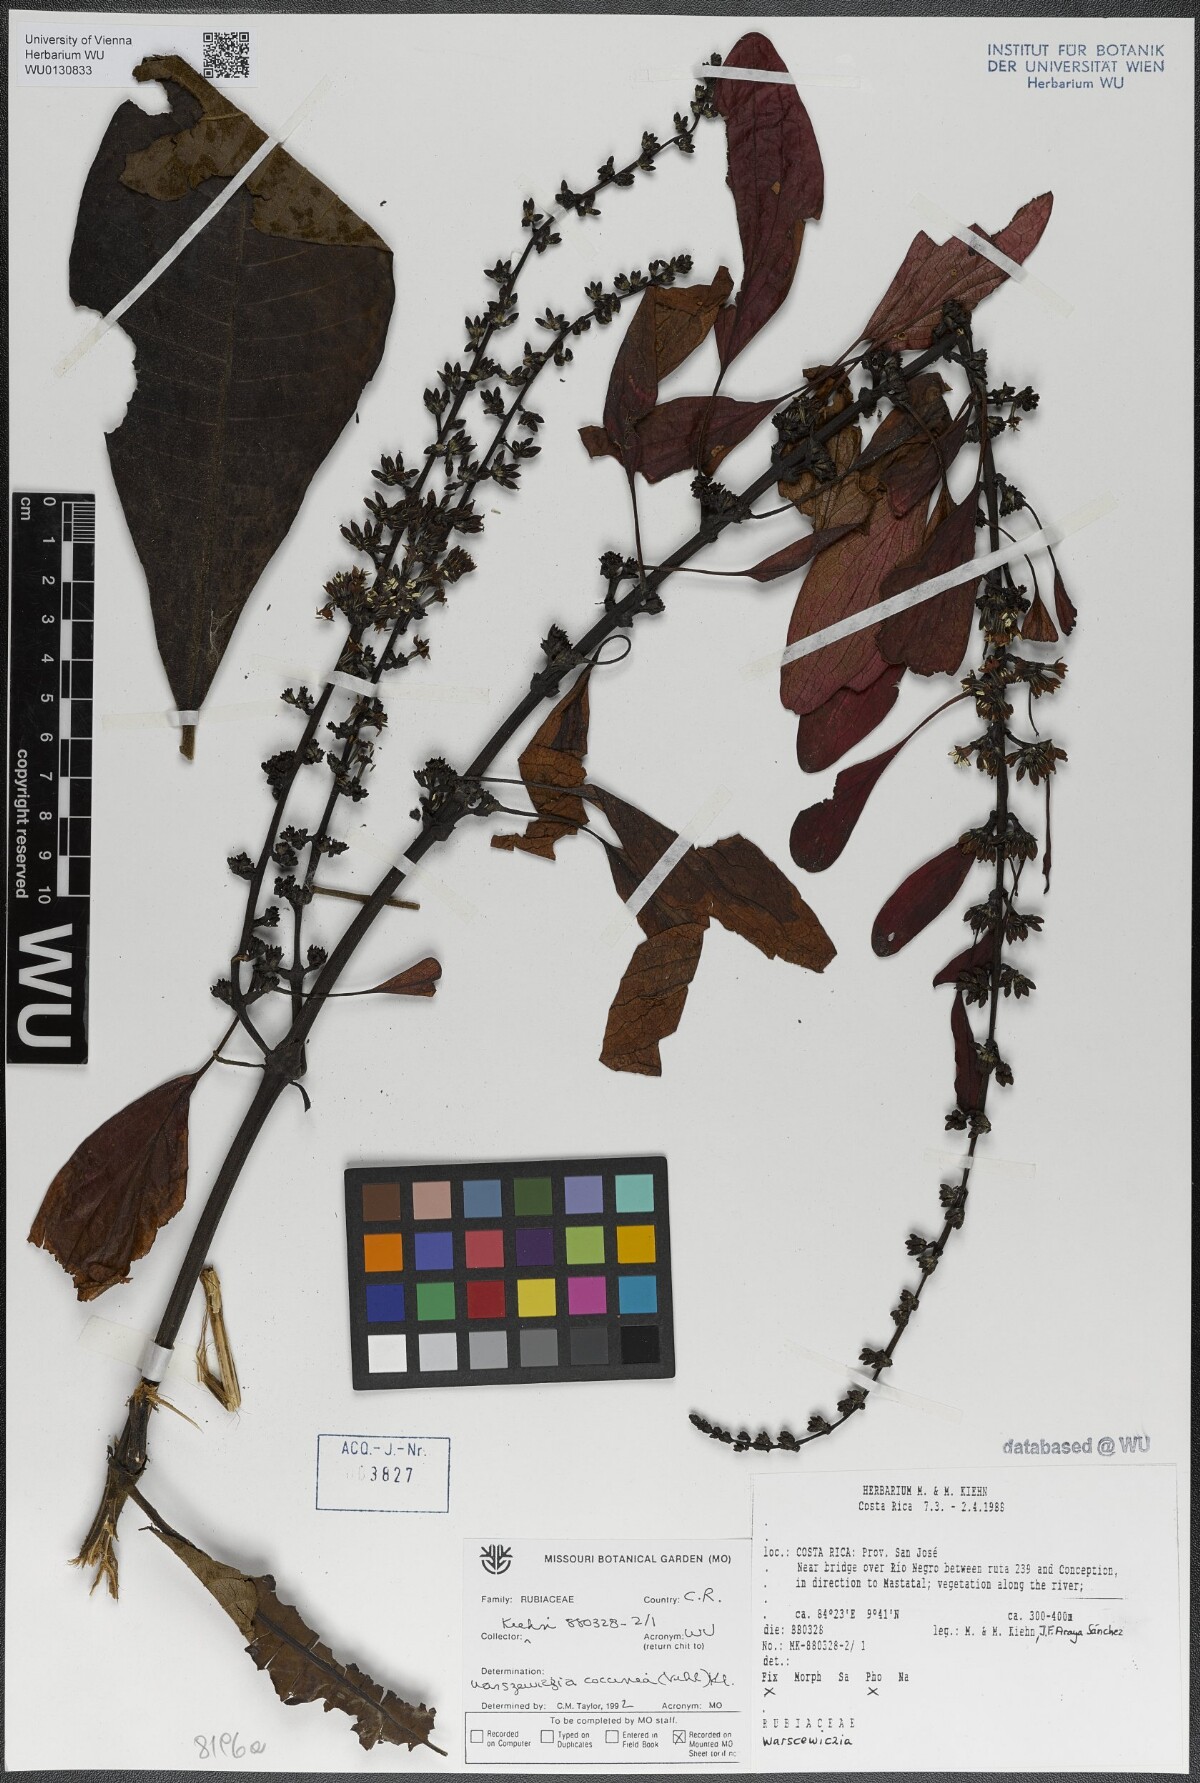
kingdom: Plantae
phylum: Tracheophyta
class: Magnoliopsida
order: Gentianales
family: Rubiaceae
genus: Warszewiczia
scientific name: Warszewiczia coccinea
